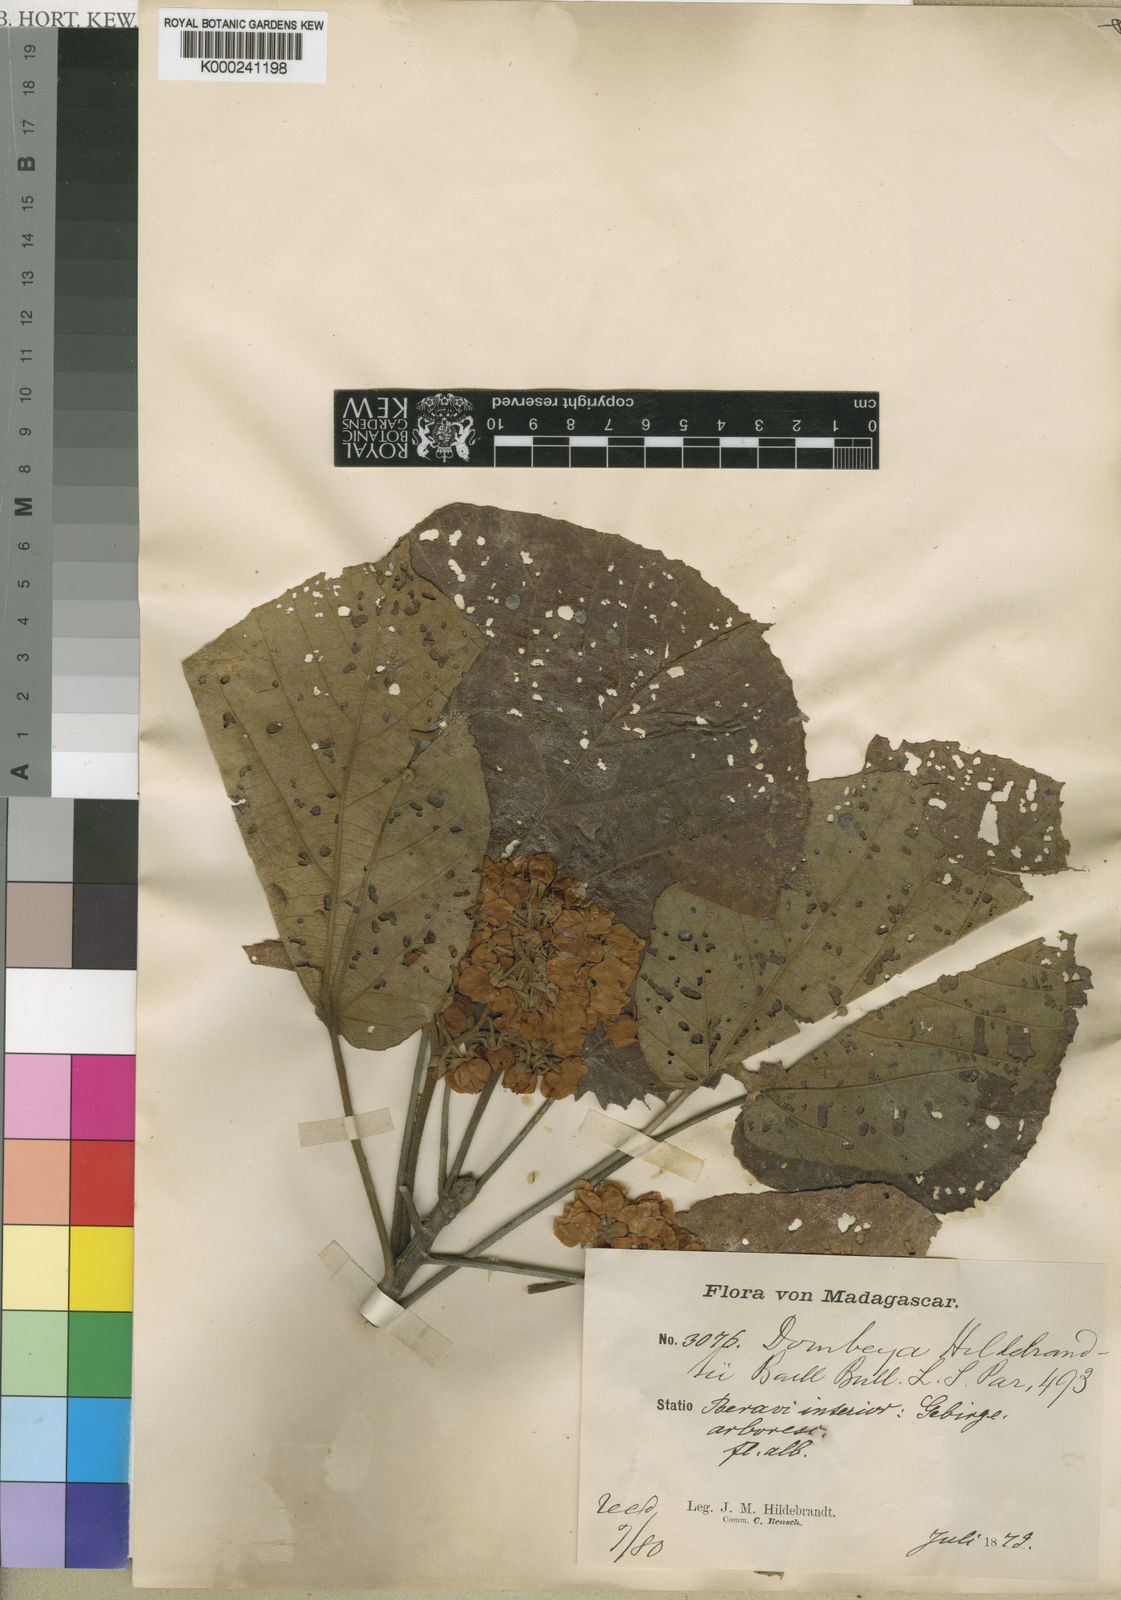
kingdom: Plantae
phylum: Tracheophyta
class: Magnoliopsida
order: Malvales
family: Malvaceae
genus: Dombeya
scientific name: Dombeya hildebrandtii
